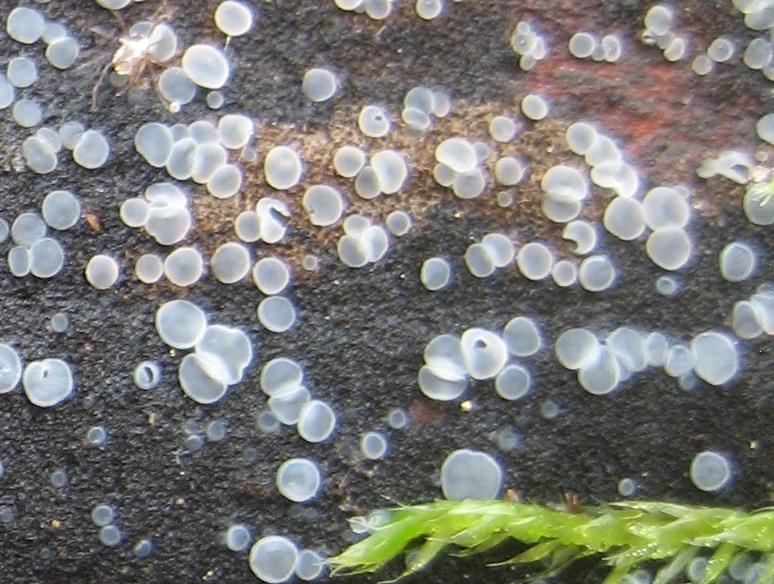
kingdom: Fungi
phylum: Ascomycota
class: Leotiomycetes
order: Helotiales
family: Mollisiaceae
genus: Mollisia
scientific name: Mollisia
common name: gråskive
